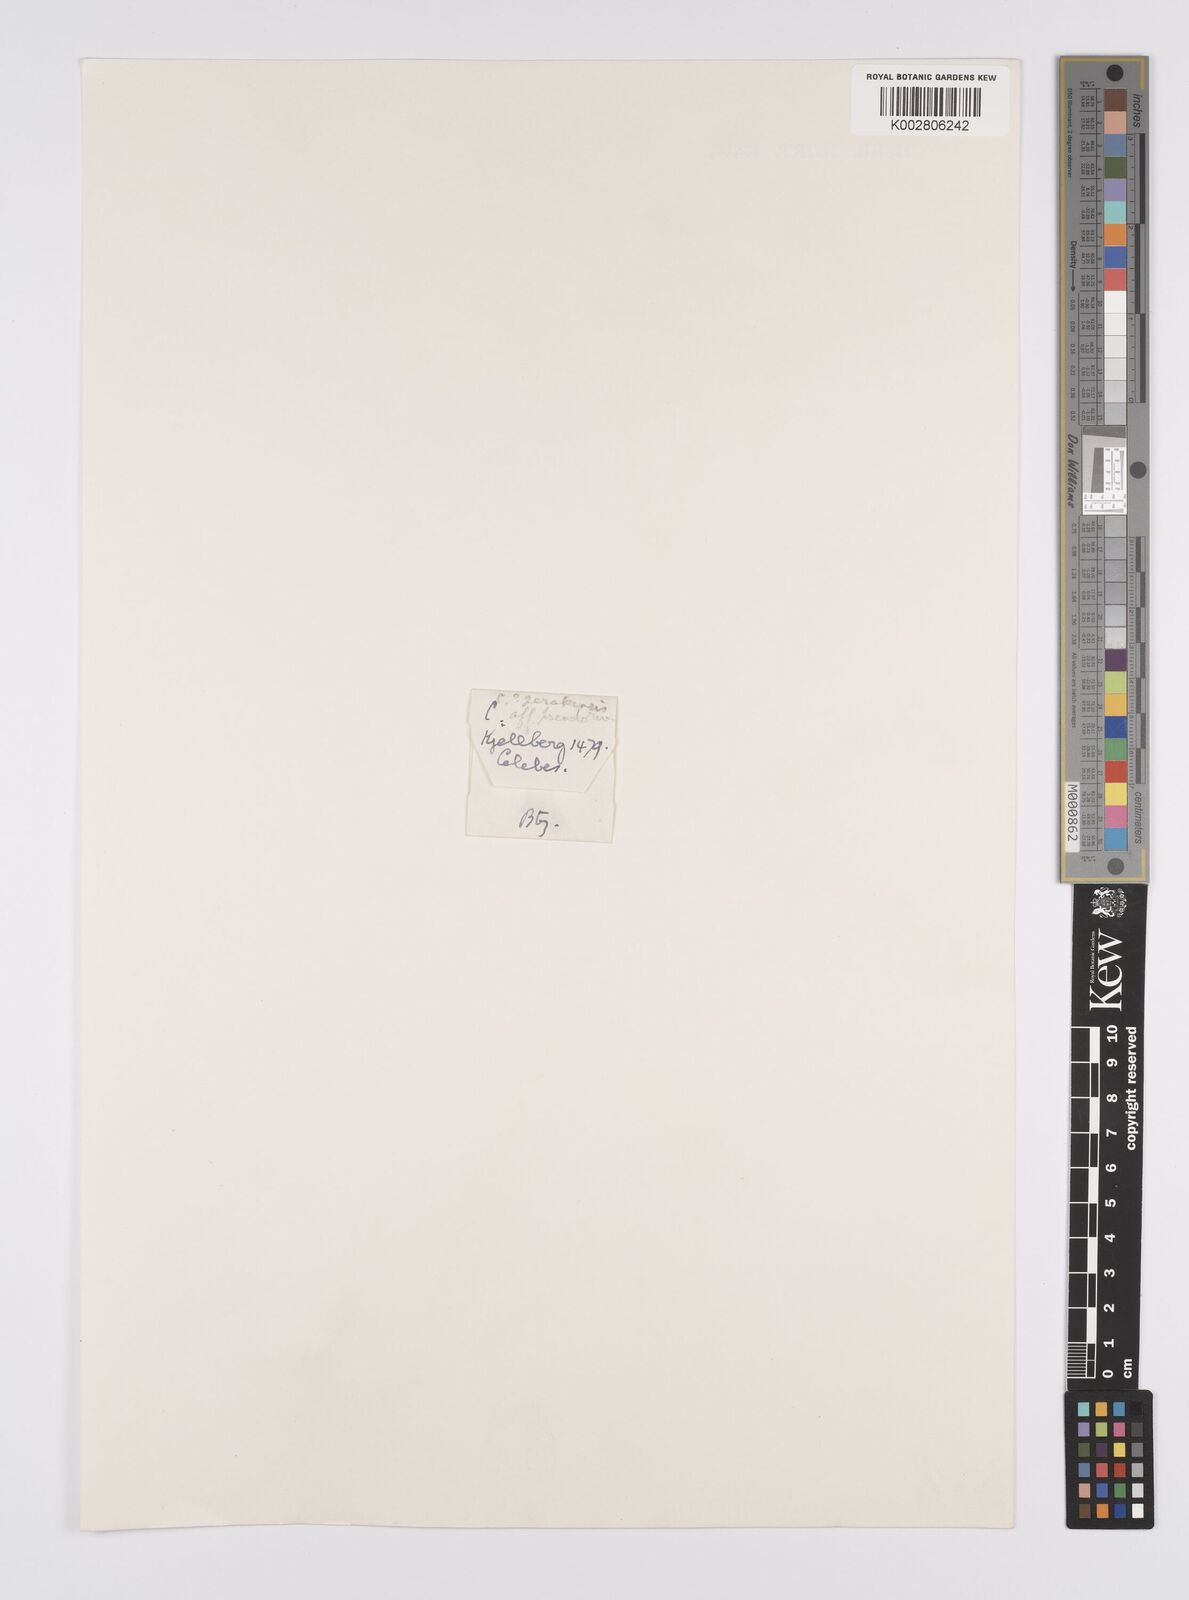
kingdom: Plantae
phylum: Tracheophyta
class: Liliopsida
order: Poales
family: Cyperaceae
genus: Carex
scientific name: Carex perakensis
